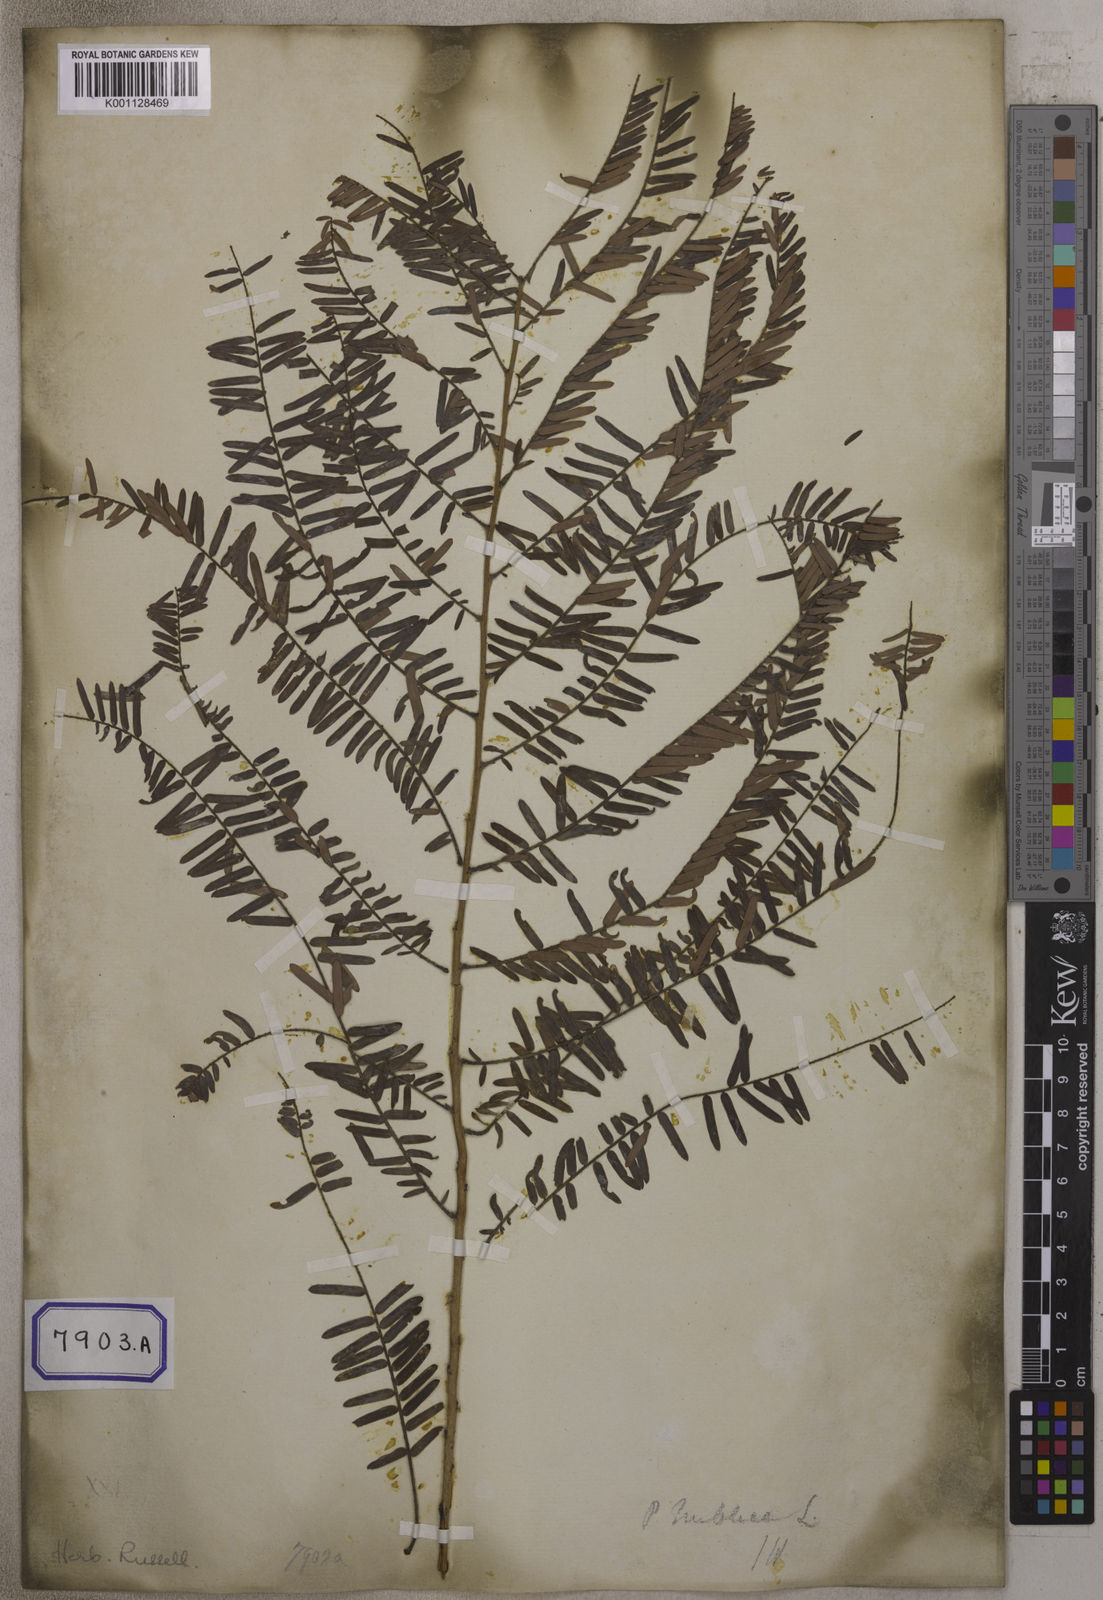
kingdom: Plantae
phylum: Tracheophyta
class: Magnoliopsida
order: Malpighiales
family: Euphorbiaceae
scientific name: Euphorbiaceae
